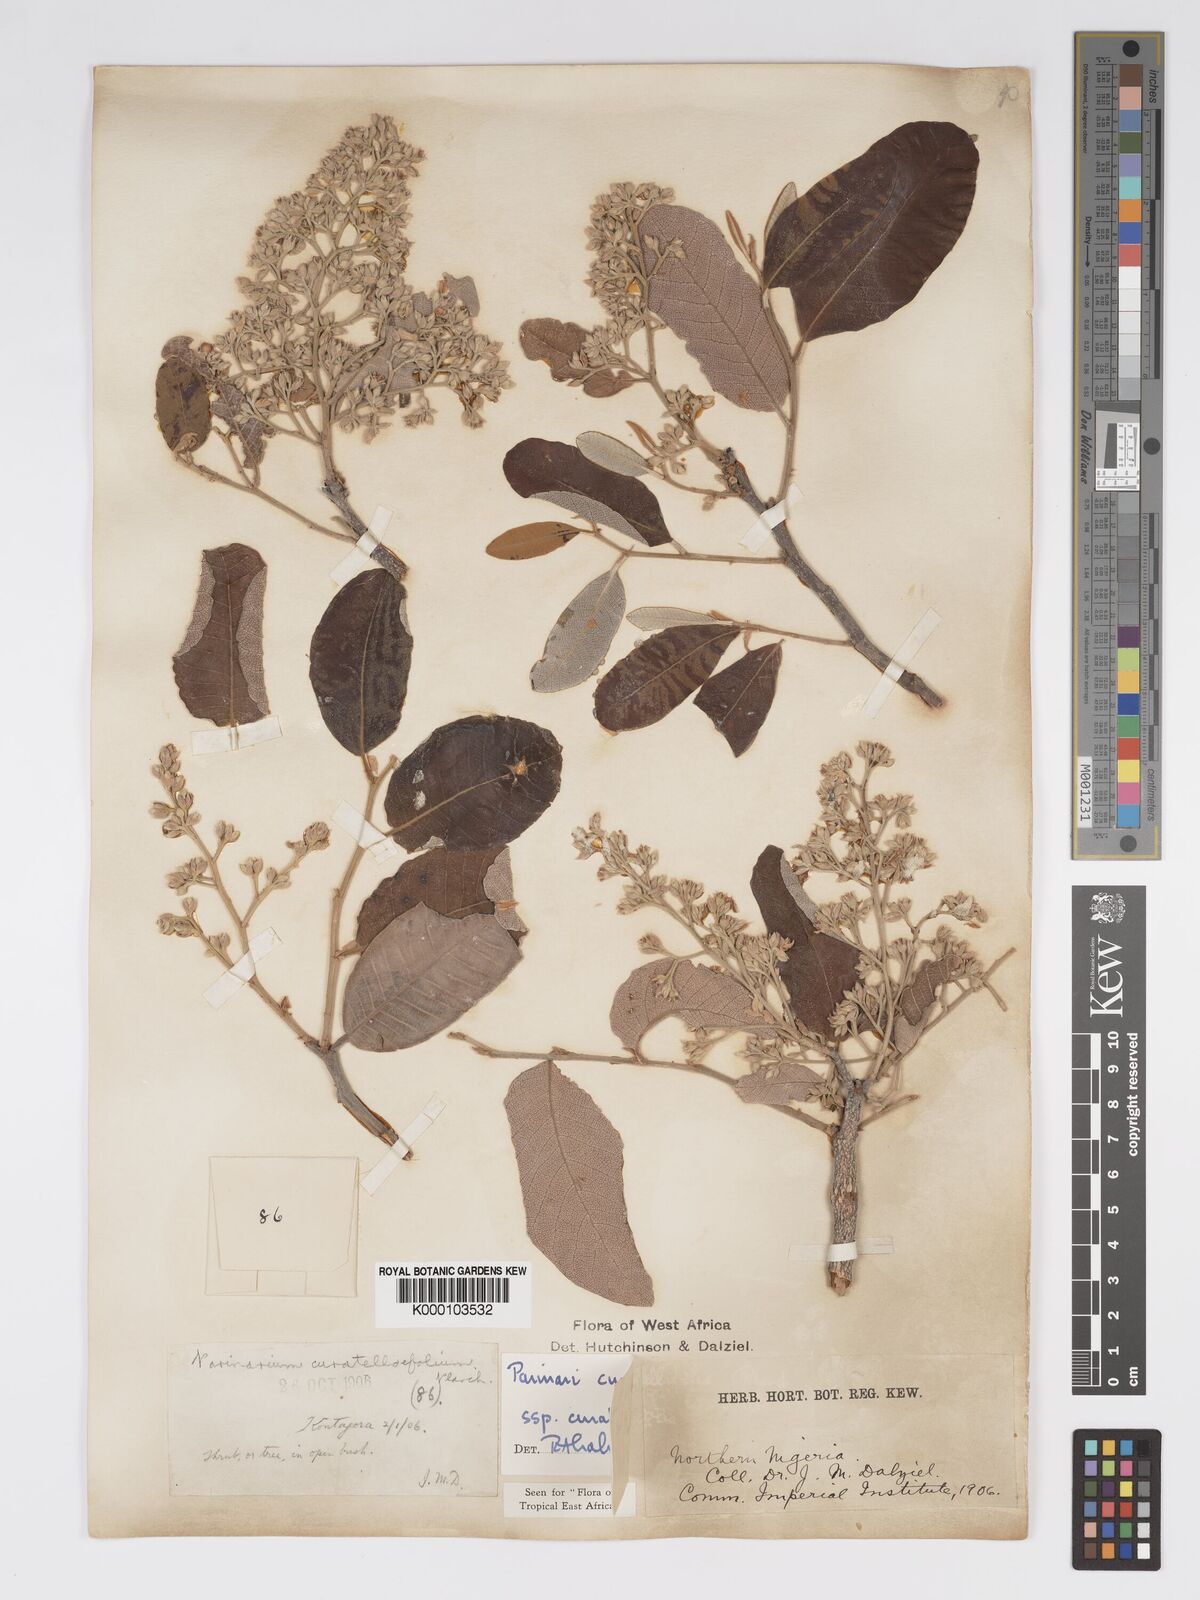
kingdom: Plantae
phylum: Tracheophyta
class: Magnoliopsida
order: Malpighiales
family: Chrysobalanaceae
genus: Parinari
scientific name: Parinari curatellifolia
